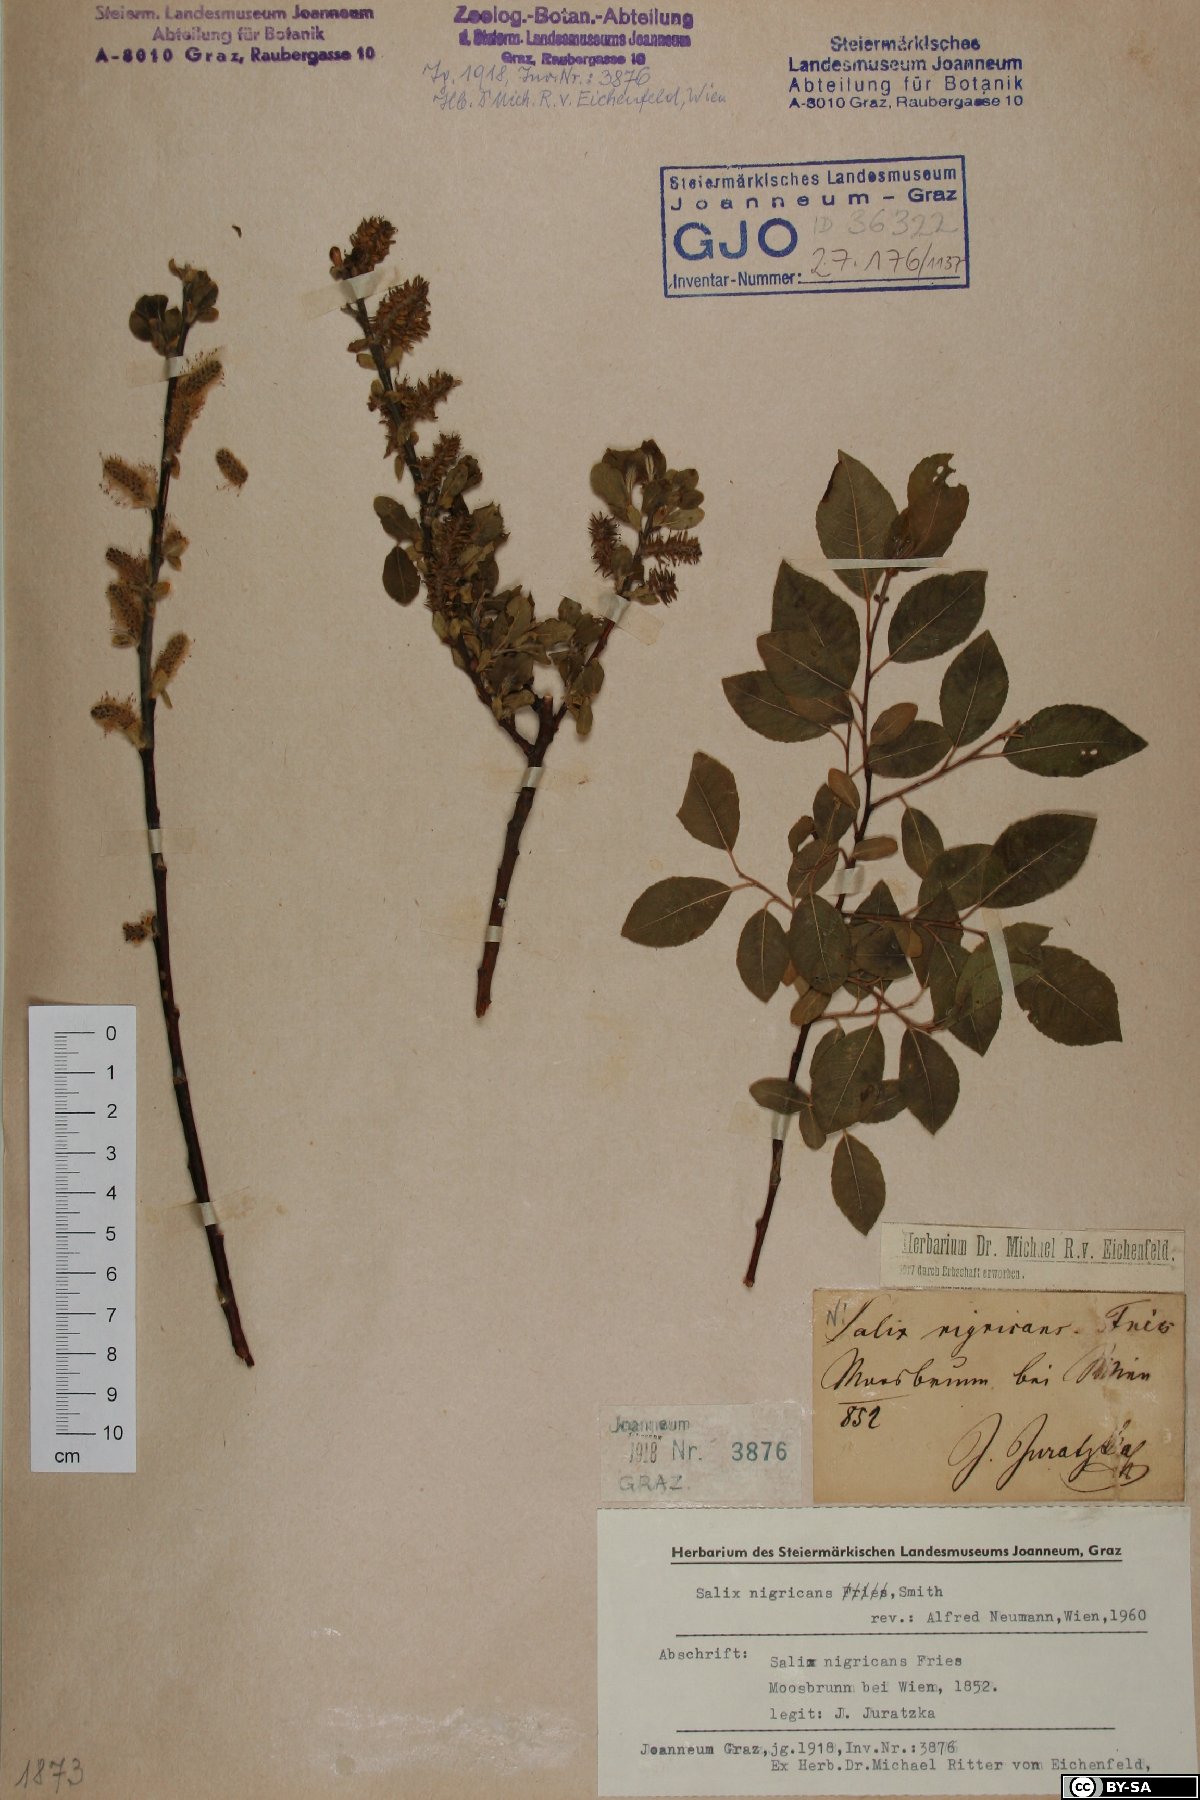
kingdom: Plantae
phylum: Tracheophyta
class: Magnoliopsida
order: Malpighiales
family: Salicaceae
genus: Salix
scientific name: Salix myrsinifolia
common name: Dark-leaved willow
